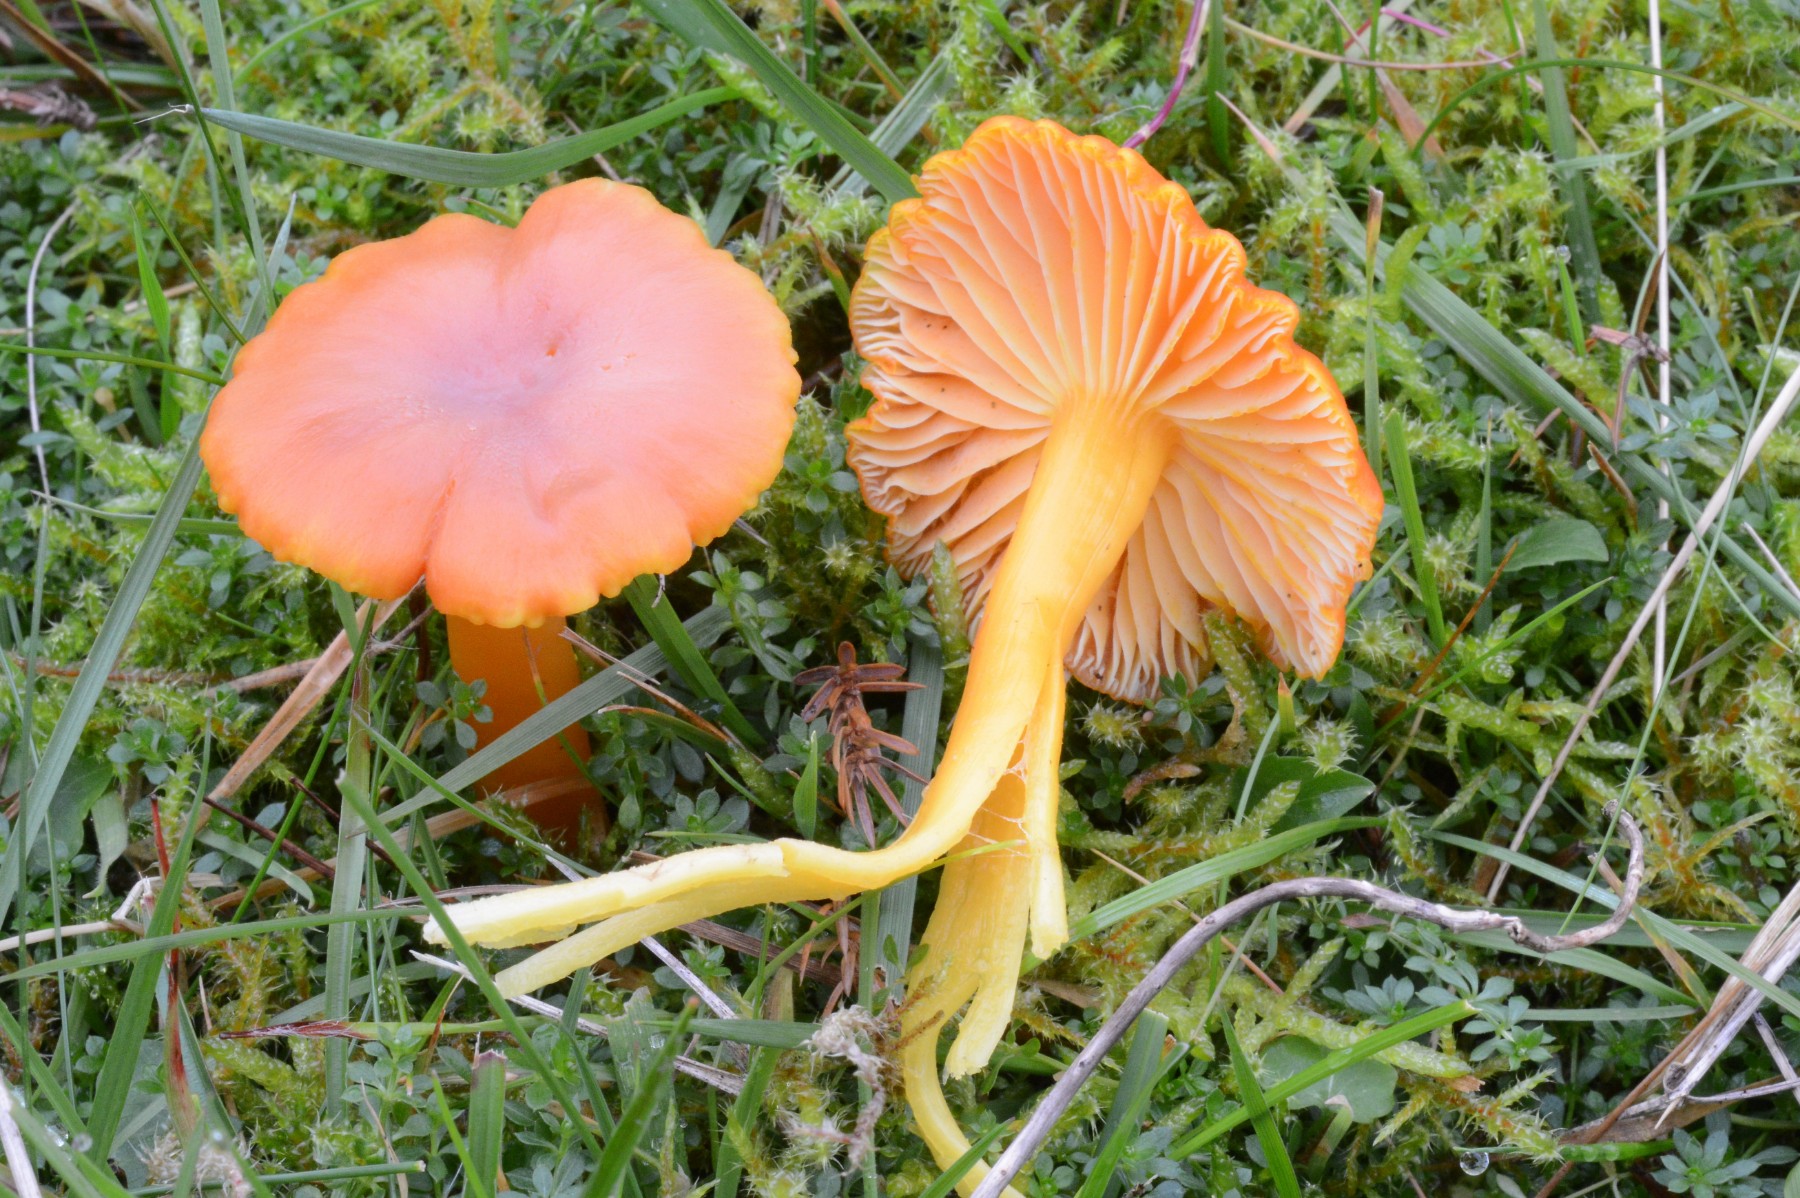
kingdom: Fungi
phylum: Basidiomycota
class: Agaricomycetes
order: Agaricales
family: Hygrophoraceae
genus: Hygrocybe
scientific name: Hygrocybe reidii
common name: honning-vokshat
